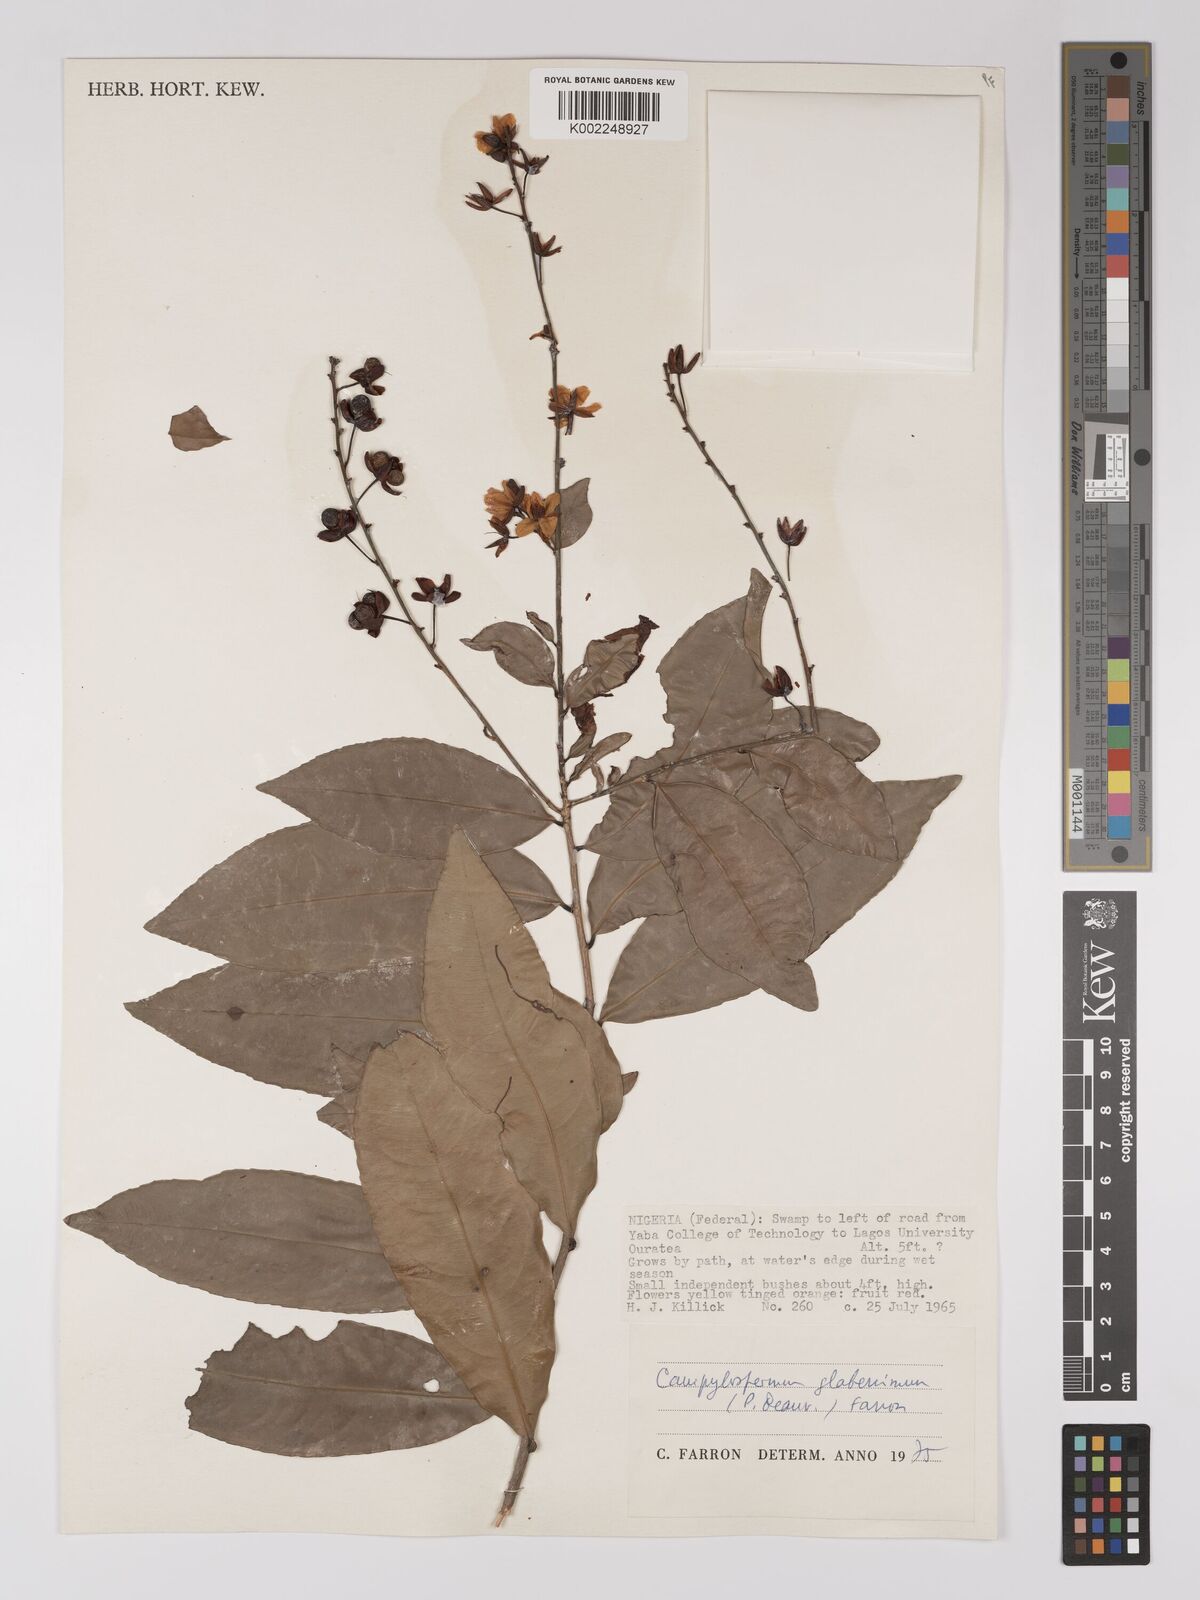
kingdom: Plantae
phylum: Tracheophyta
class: Magnoliopsida
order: Malpighiales
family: Ochnaceae
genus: Campylospermum
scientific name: Campylospermum glaberrimum
